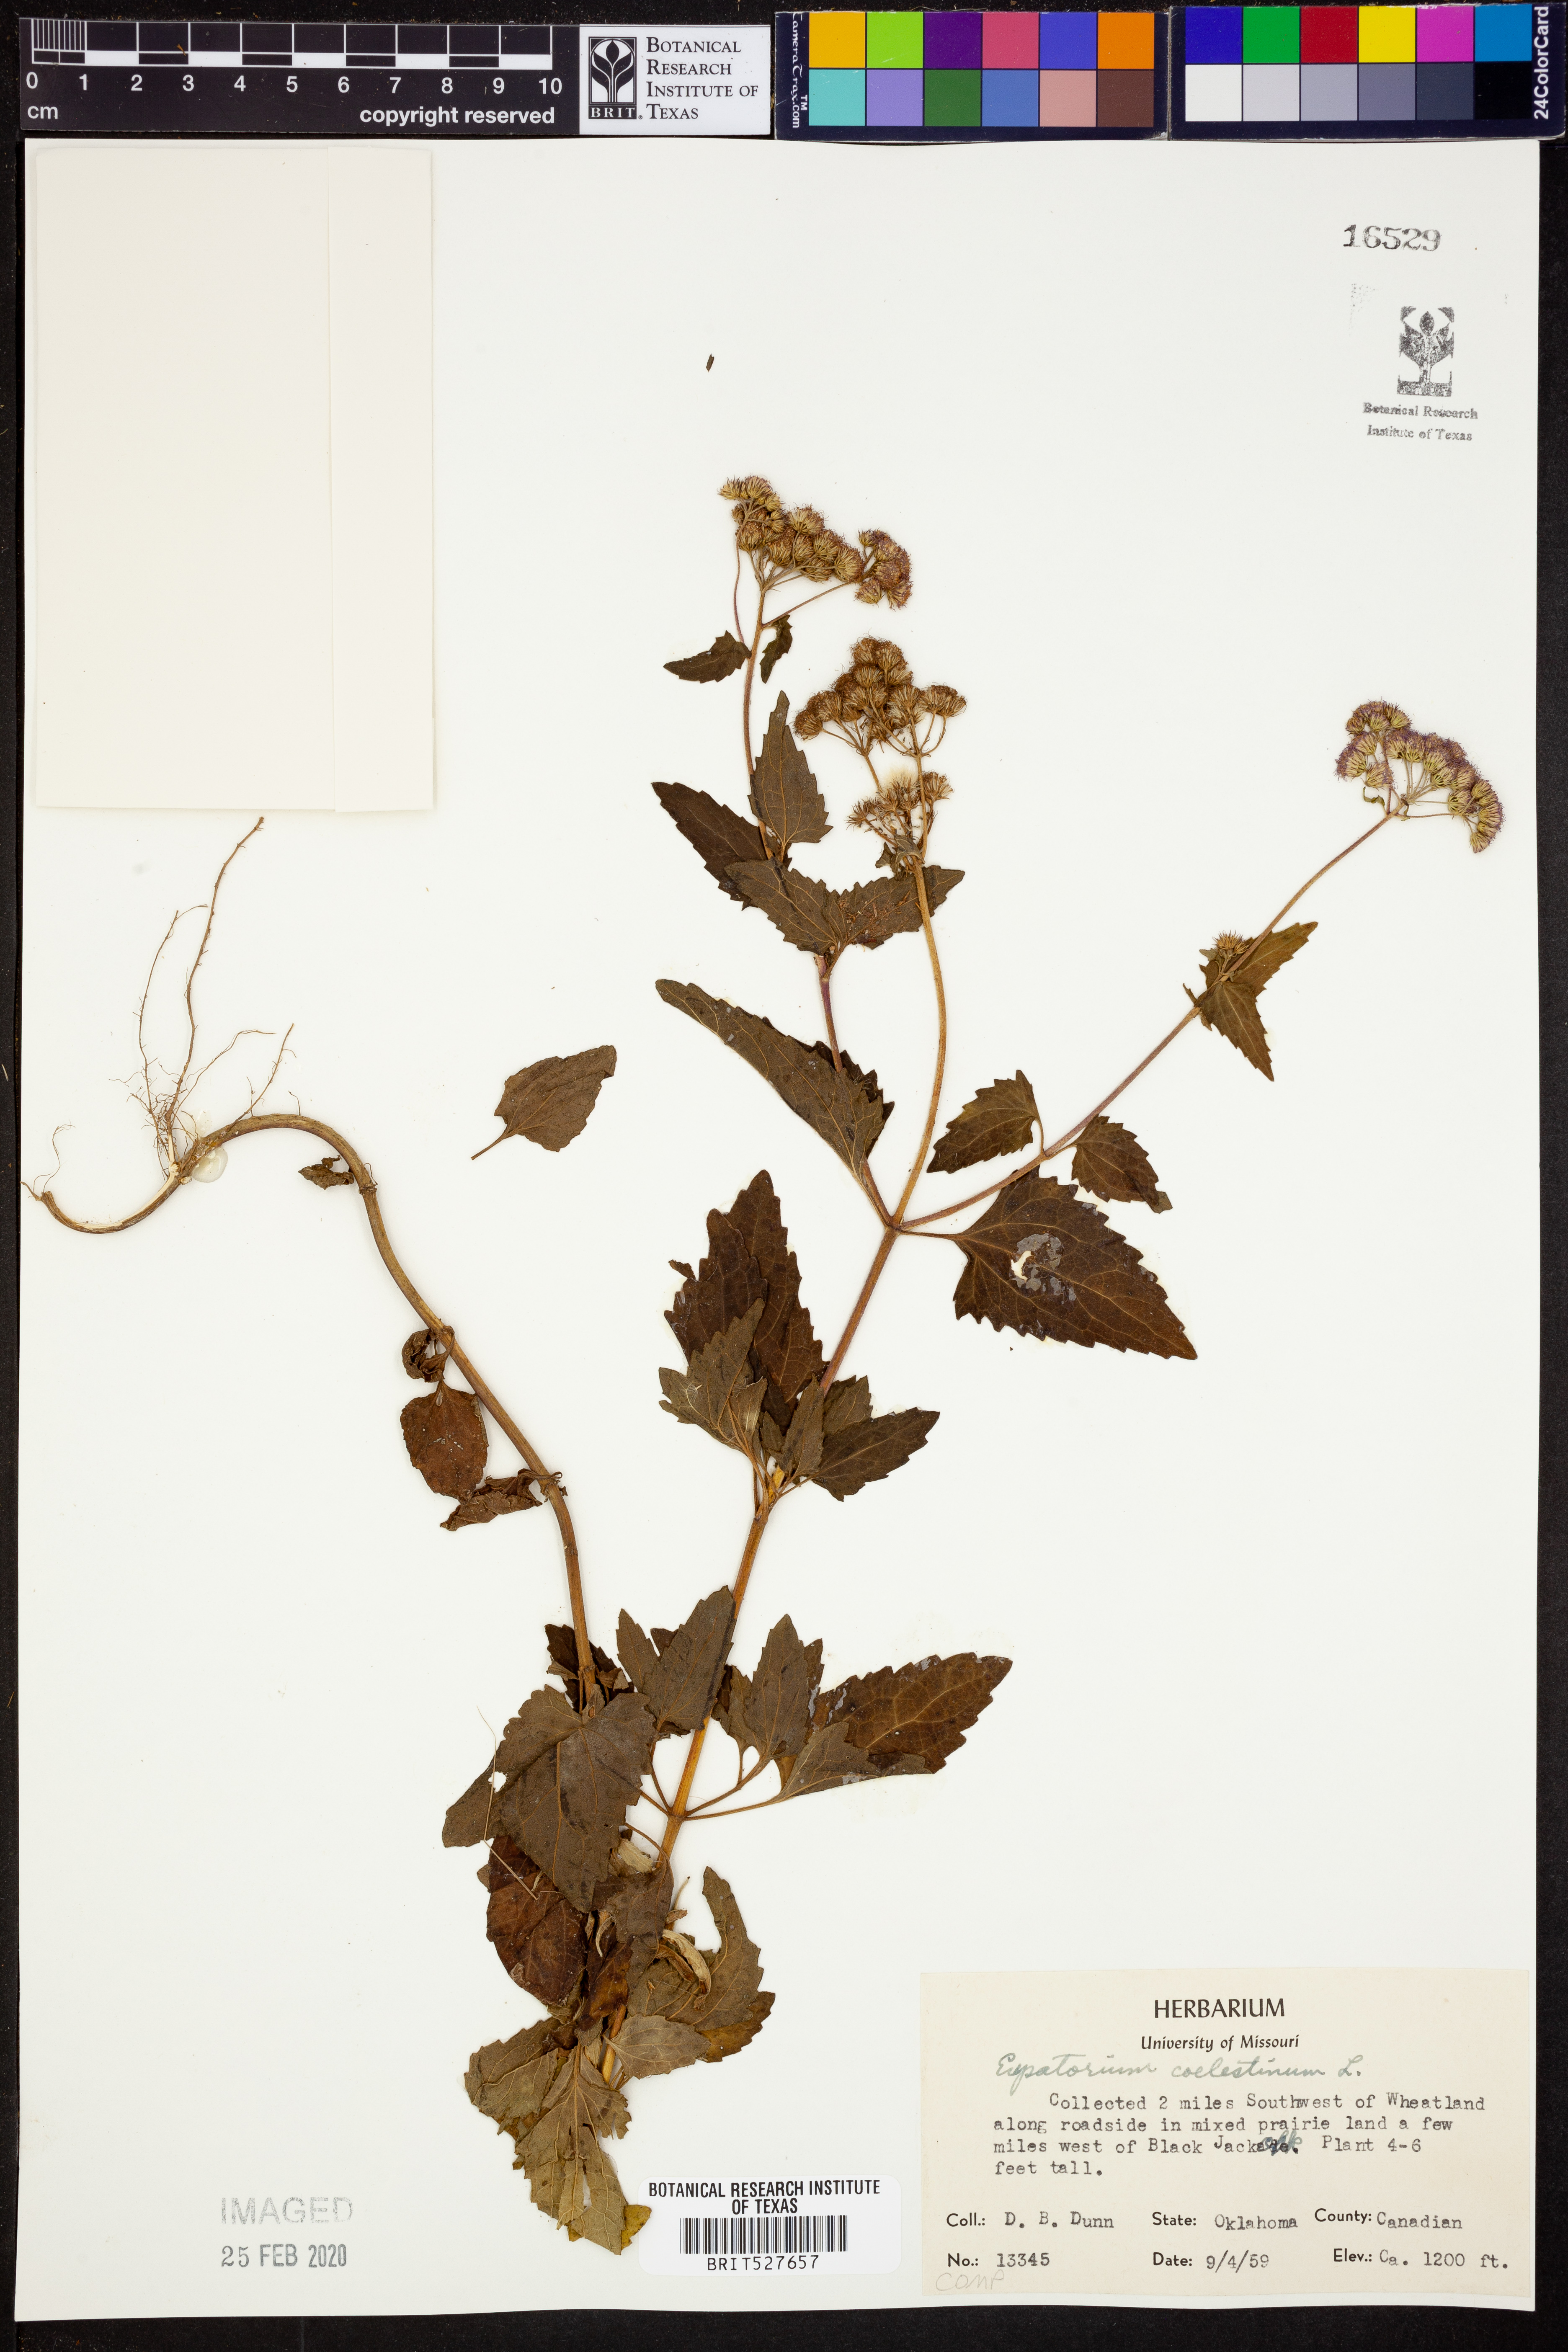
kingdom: Plantae
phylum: Tracheophyta
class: Magnoliopsida
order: Asterales
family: Asteraceae
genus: Conoclinium
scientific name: Conoclinium coelestinum
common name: Blue mistflower
